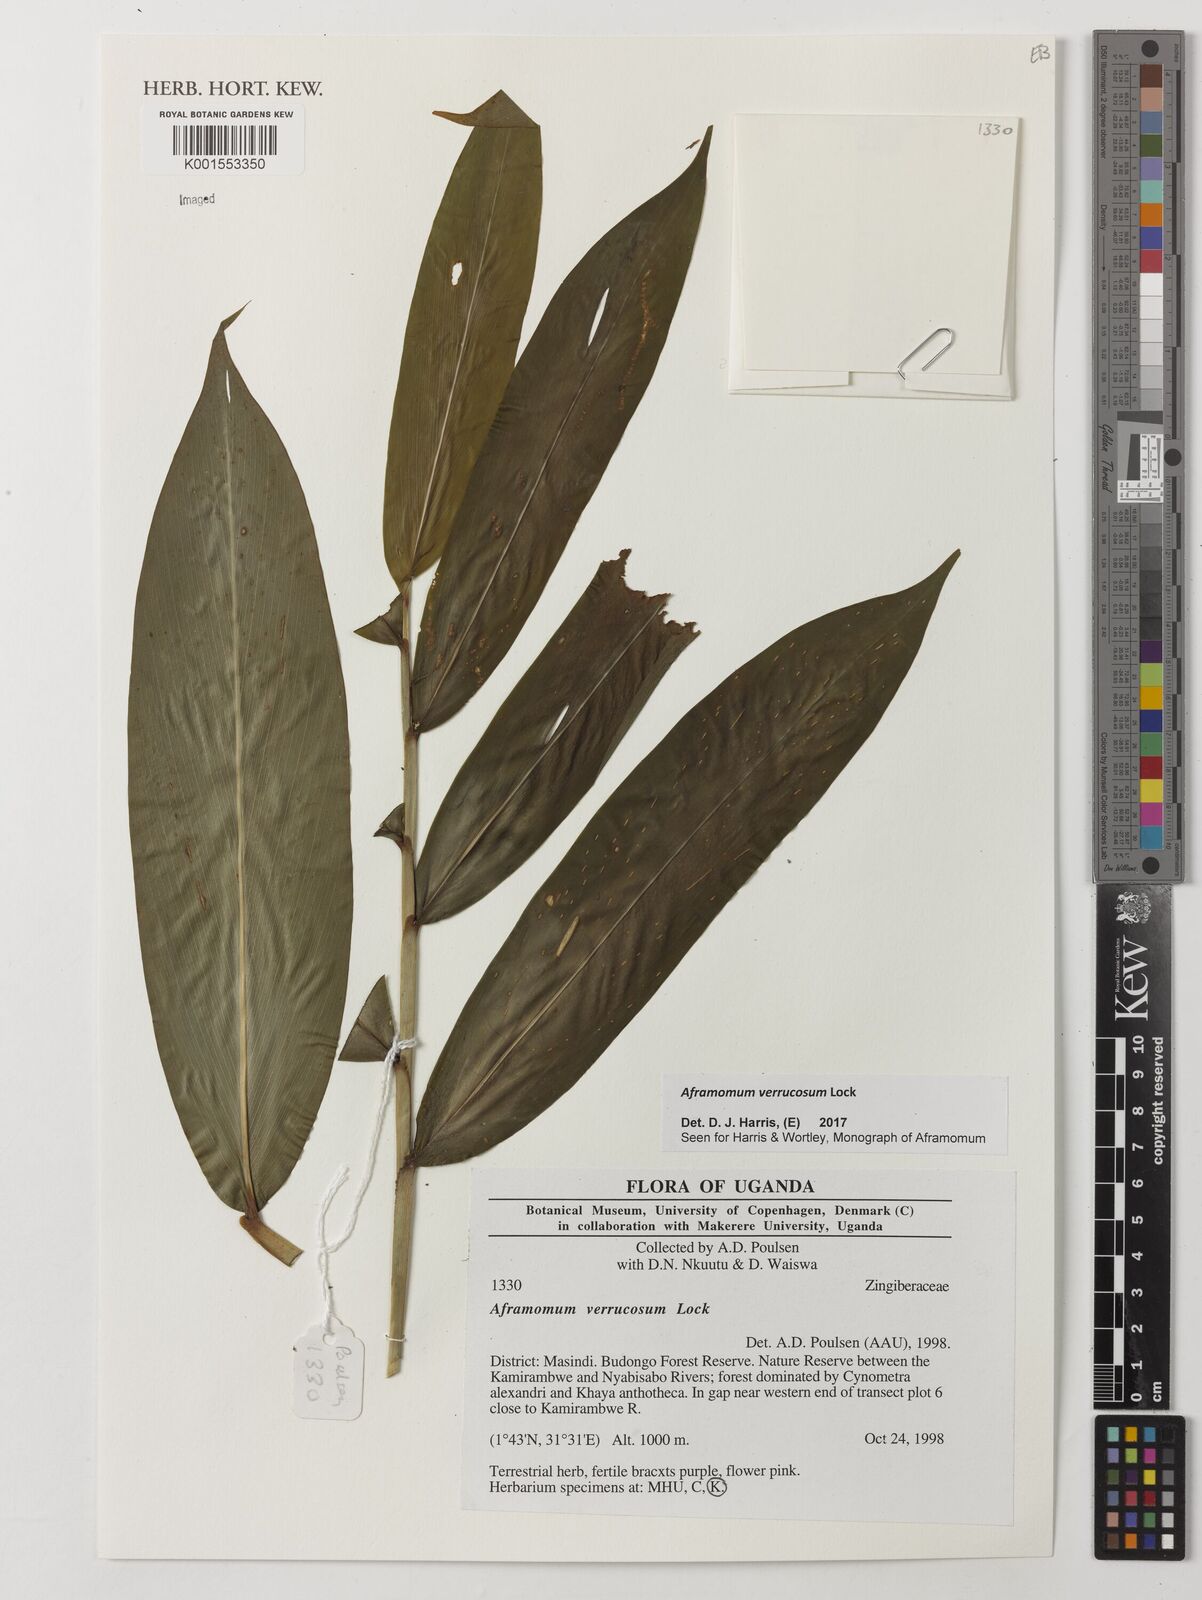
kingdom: Plantae
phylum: Tracheophyta
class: Liliopsida
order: Zingiberales
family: Zingiberaceae
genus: Aframomum
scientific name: Aframomum verrucosum
